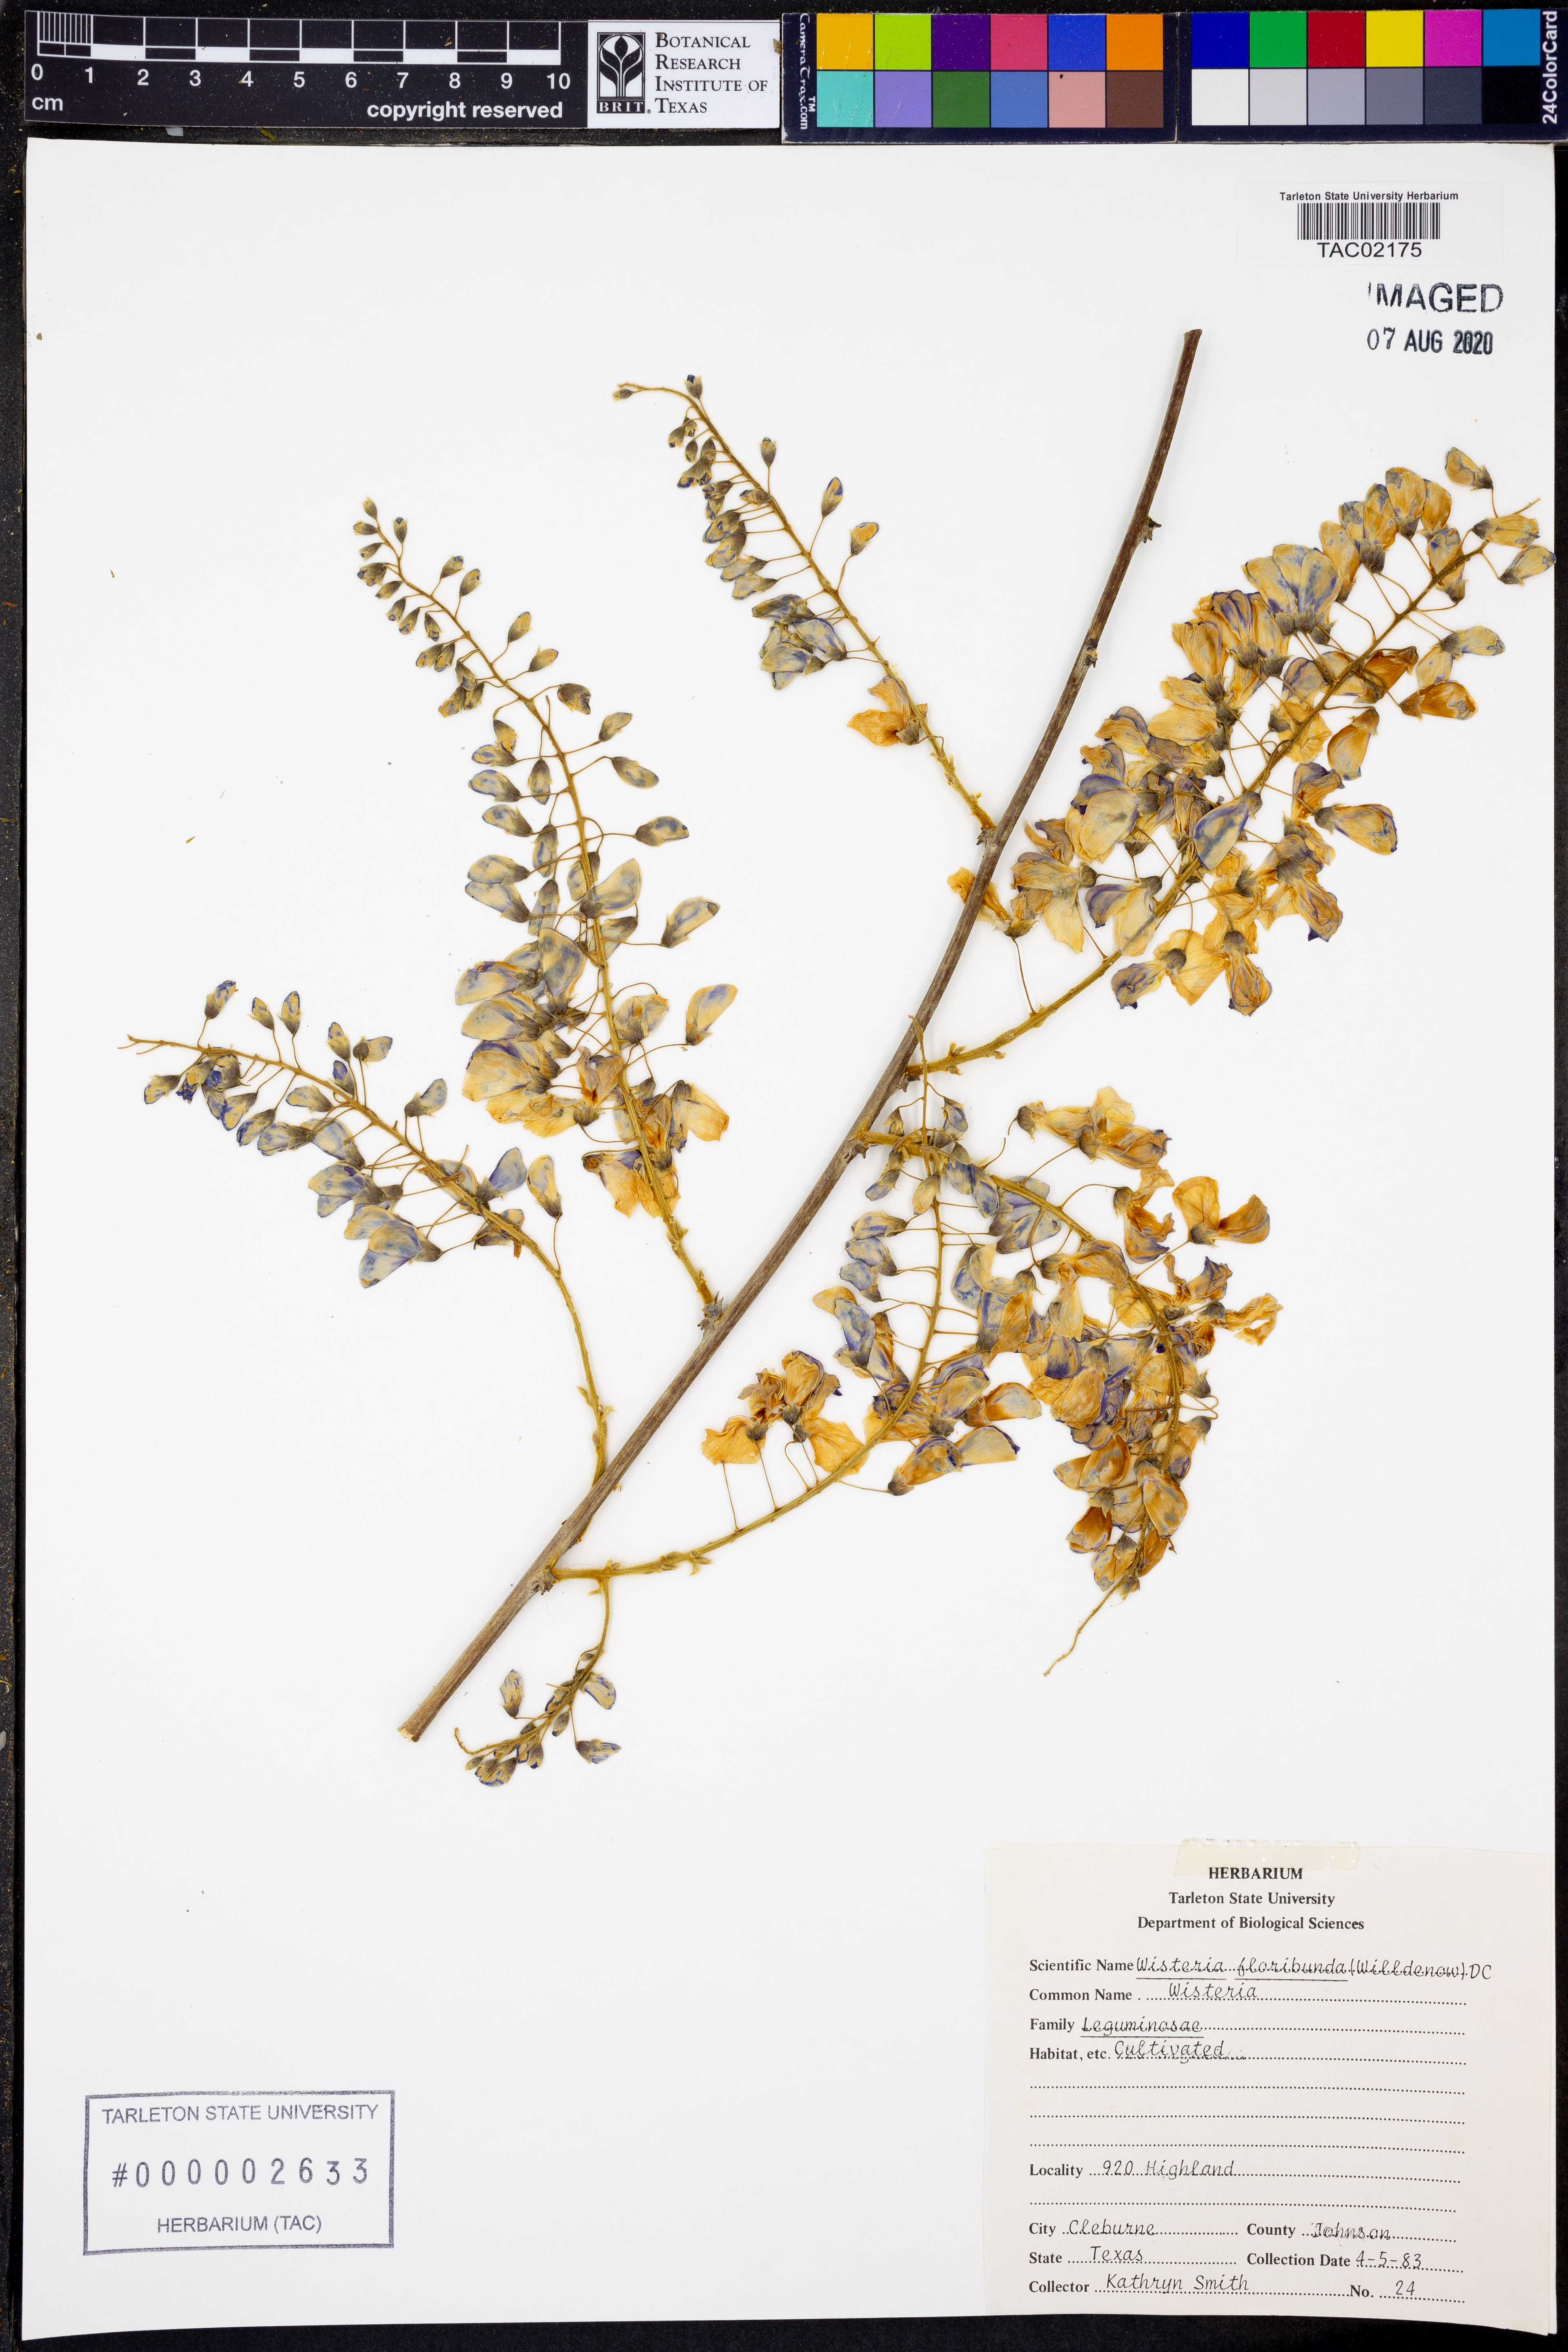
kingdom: Plantae
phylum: Tracheophyta
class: Magnoliopsida
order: Fabales
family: Fabaceae
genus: Wisteria
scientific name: Wisteria floribunda
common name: Japanese wisteria
